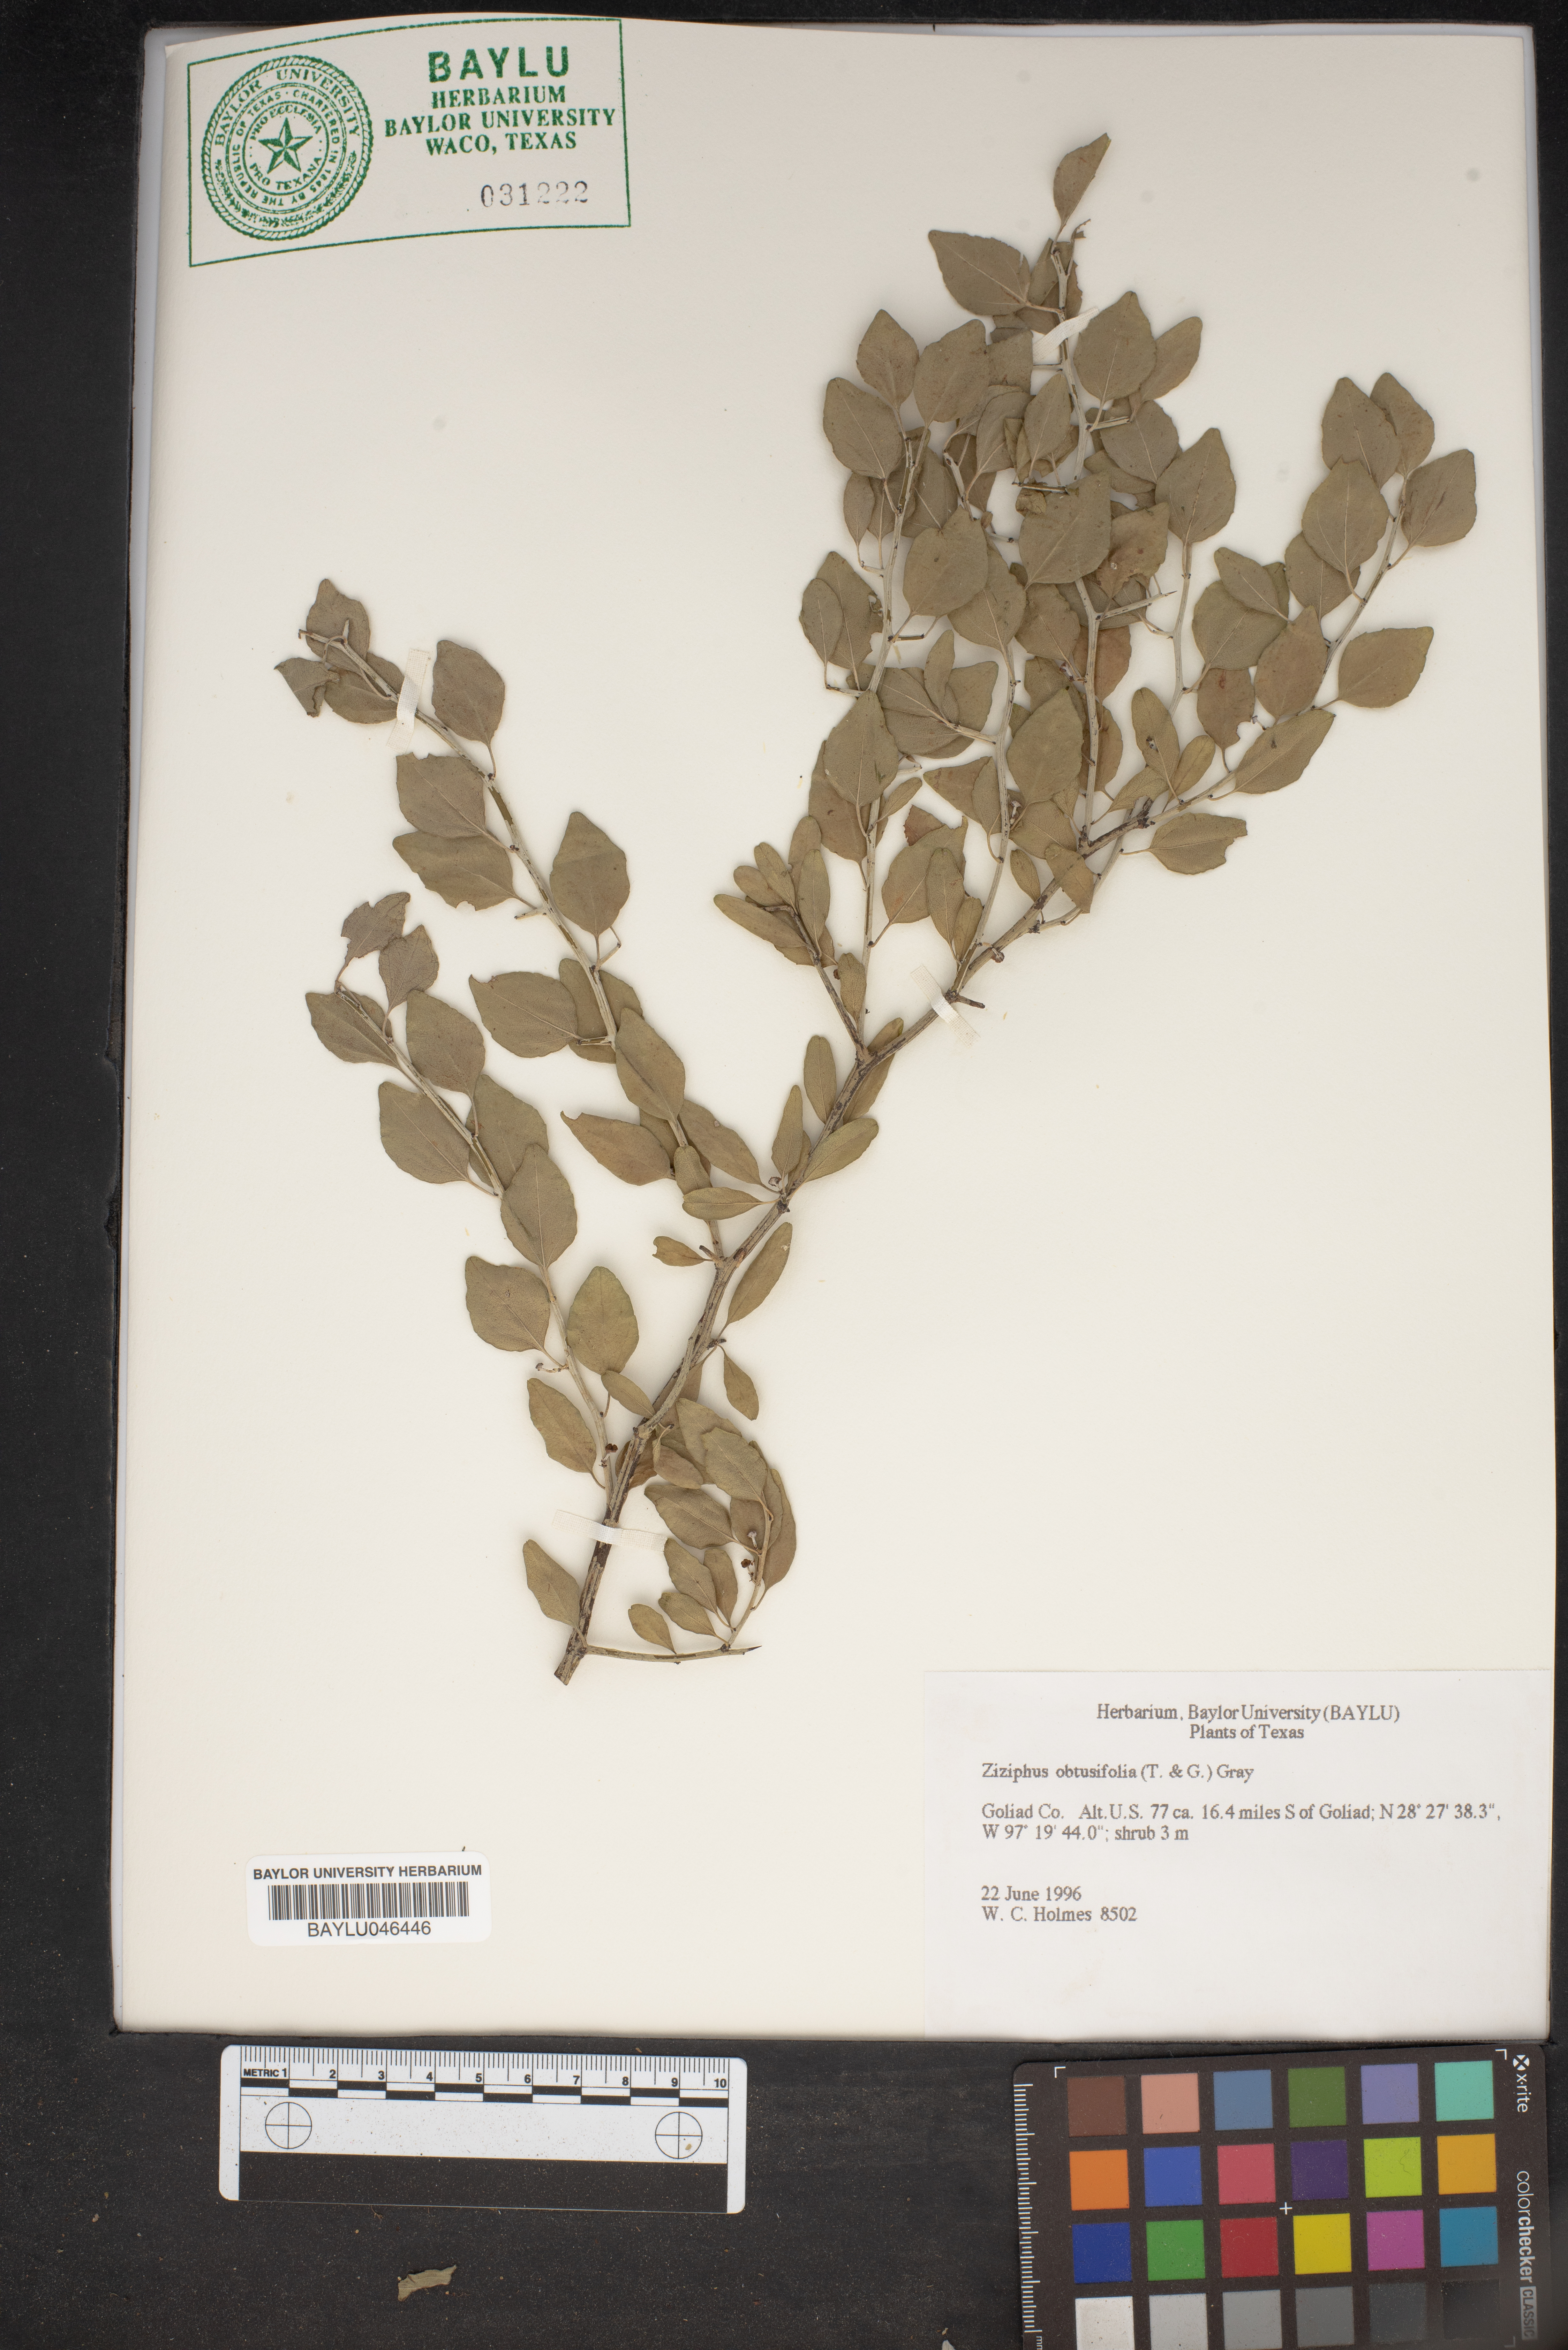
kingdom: Plantae
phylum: Tracheophyta
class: Magnoliopsida
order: Rosales
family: Rhamnaceae
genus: Sarcomphalus
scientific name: Sarcomphalus obtusifolius
